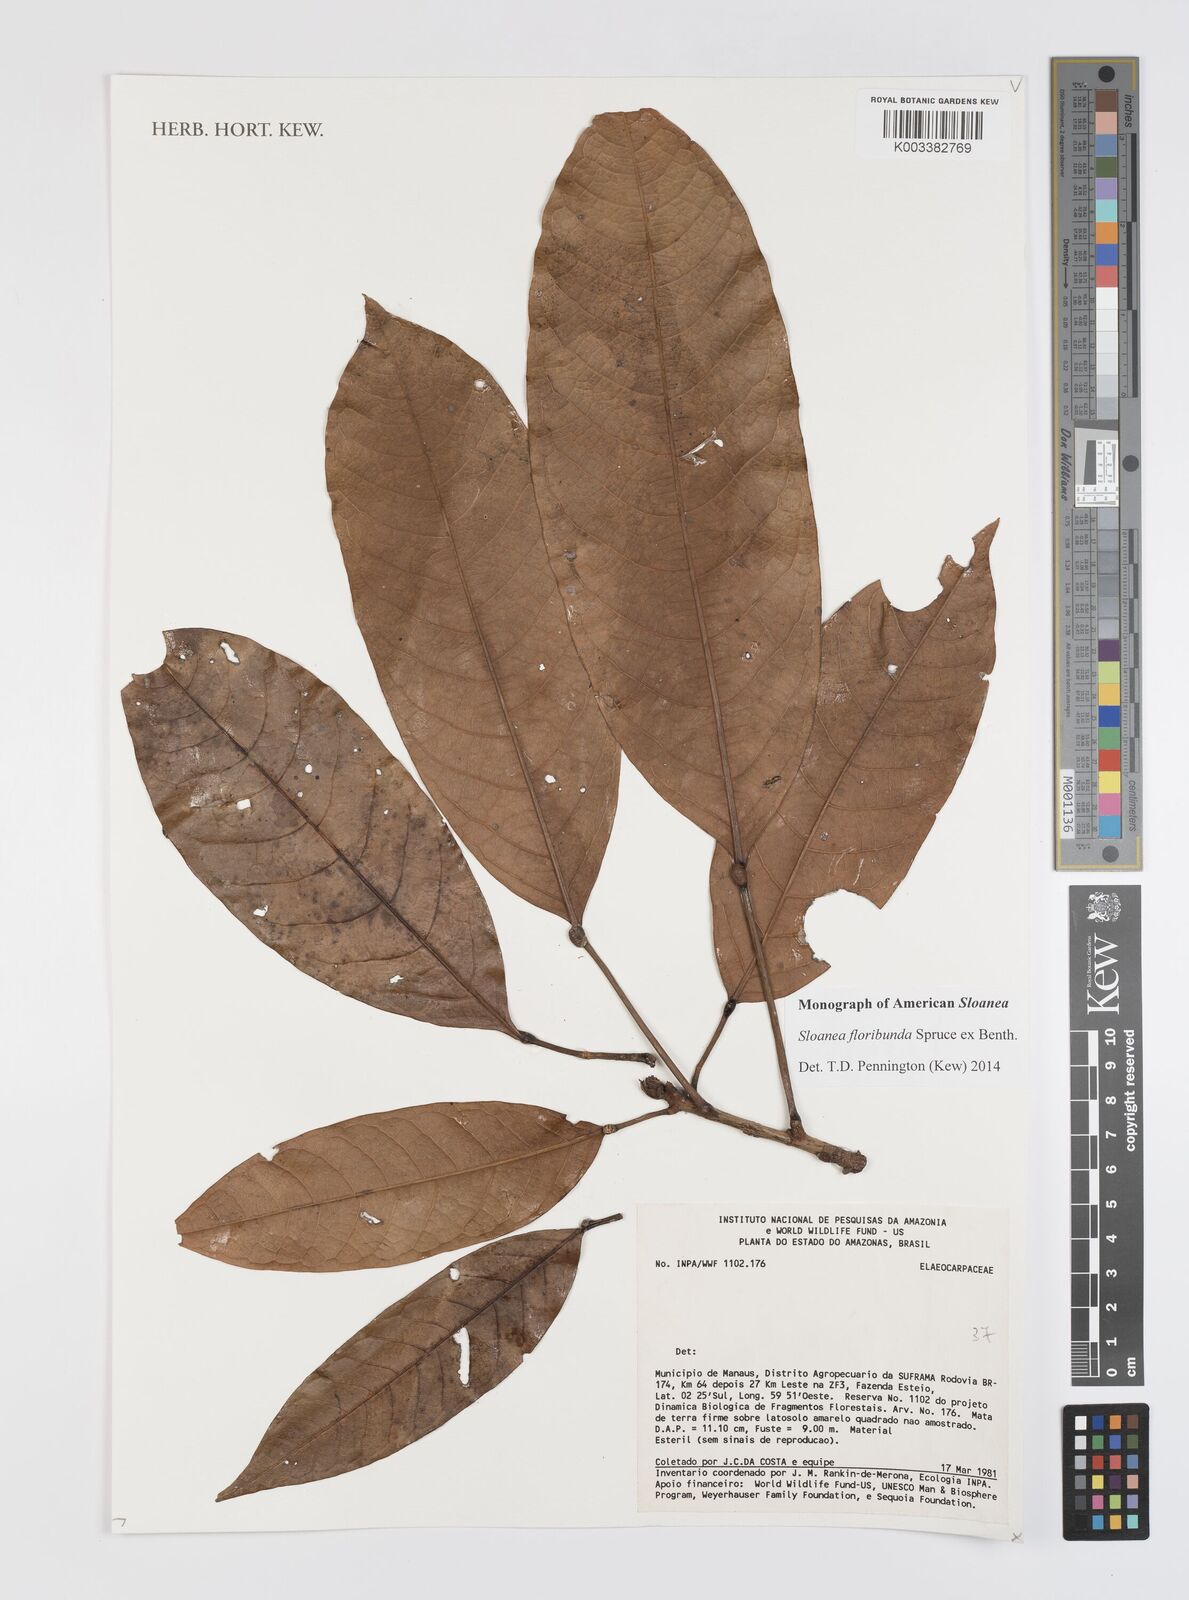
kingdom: Plantae
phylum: Tracheophyta
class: Magnoliopsida
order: Oxalidales
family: Elaeocarpaceae
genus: Sloanea
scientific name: Sloanea floribunda
